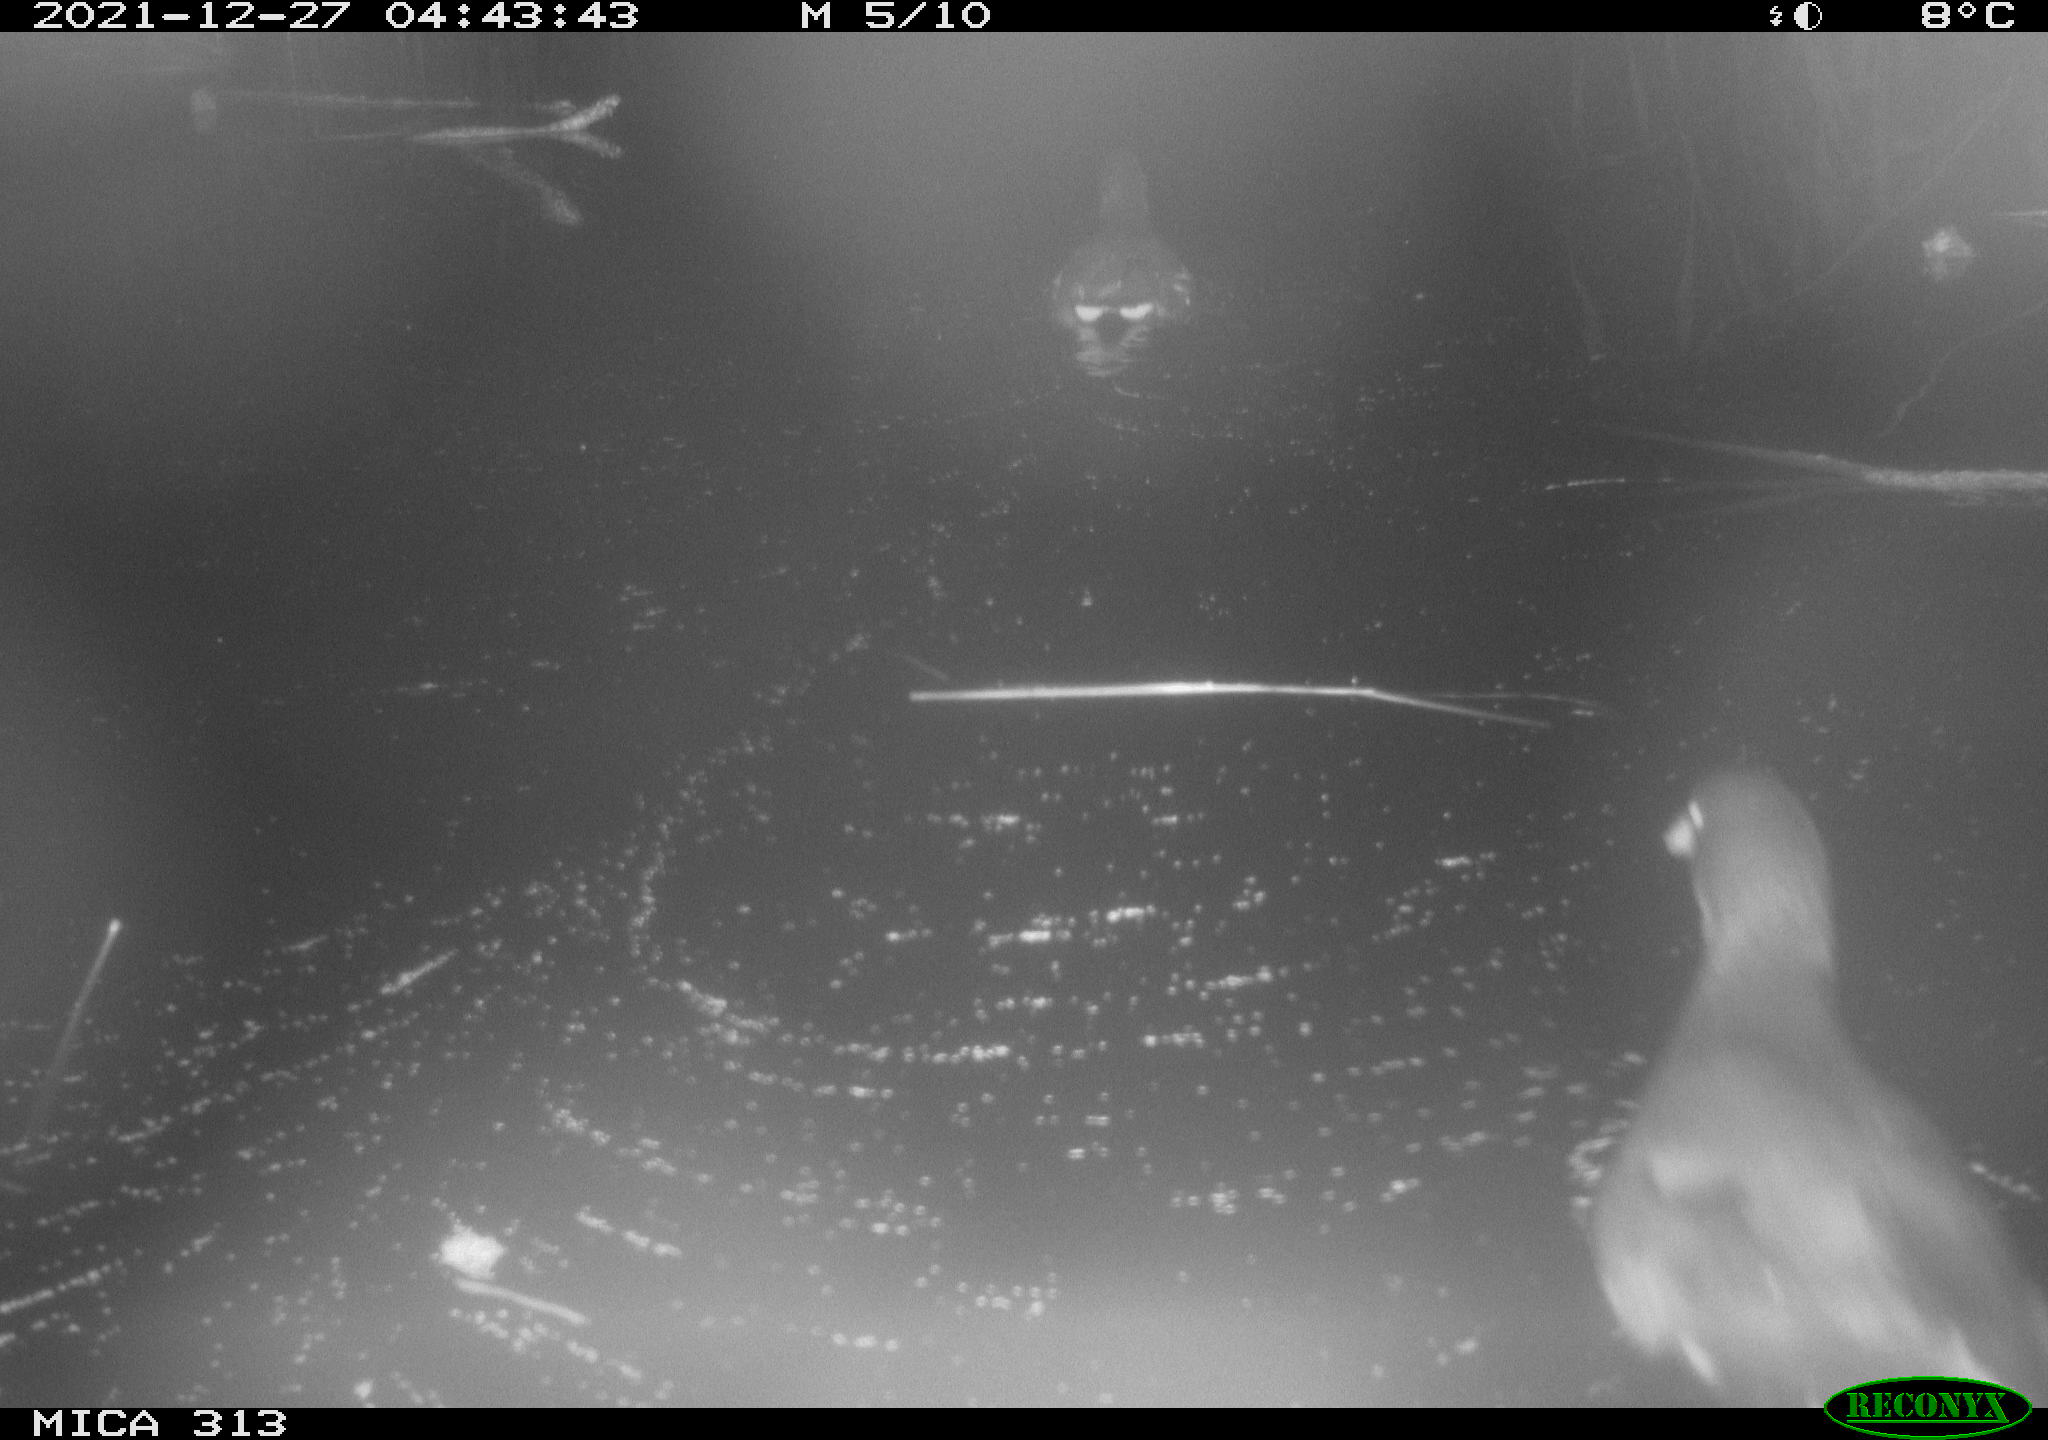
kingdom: Animalia
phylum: Chordata
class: Aves
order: Gruiformes
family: Rallidae
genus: Gallinula
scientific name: Gallinula chloropus
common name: Common moorhen
